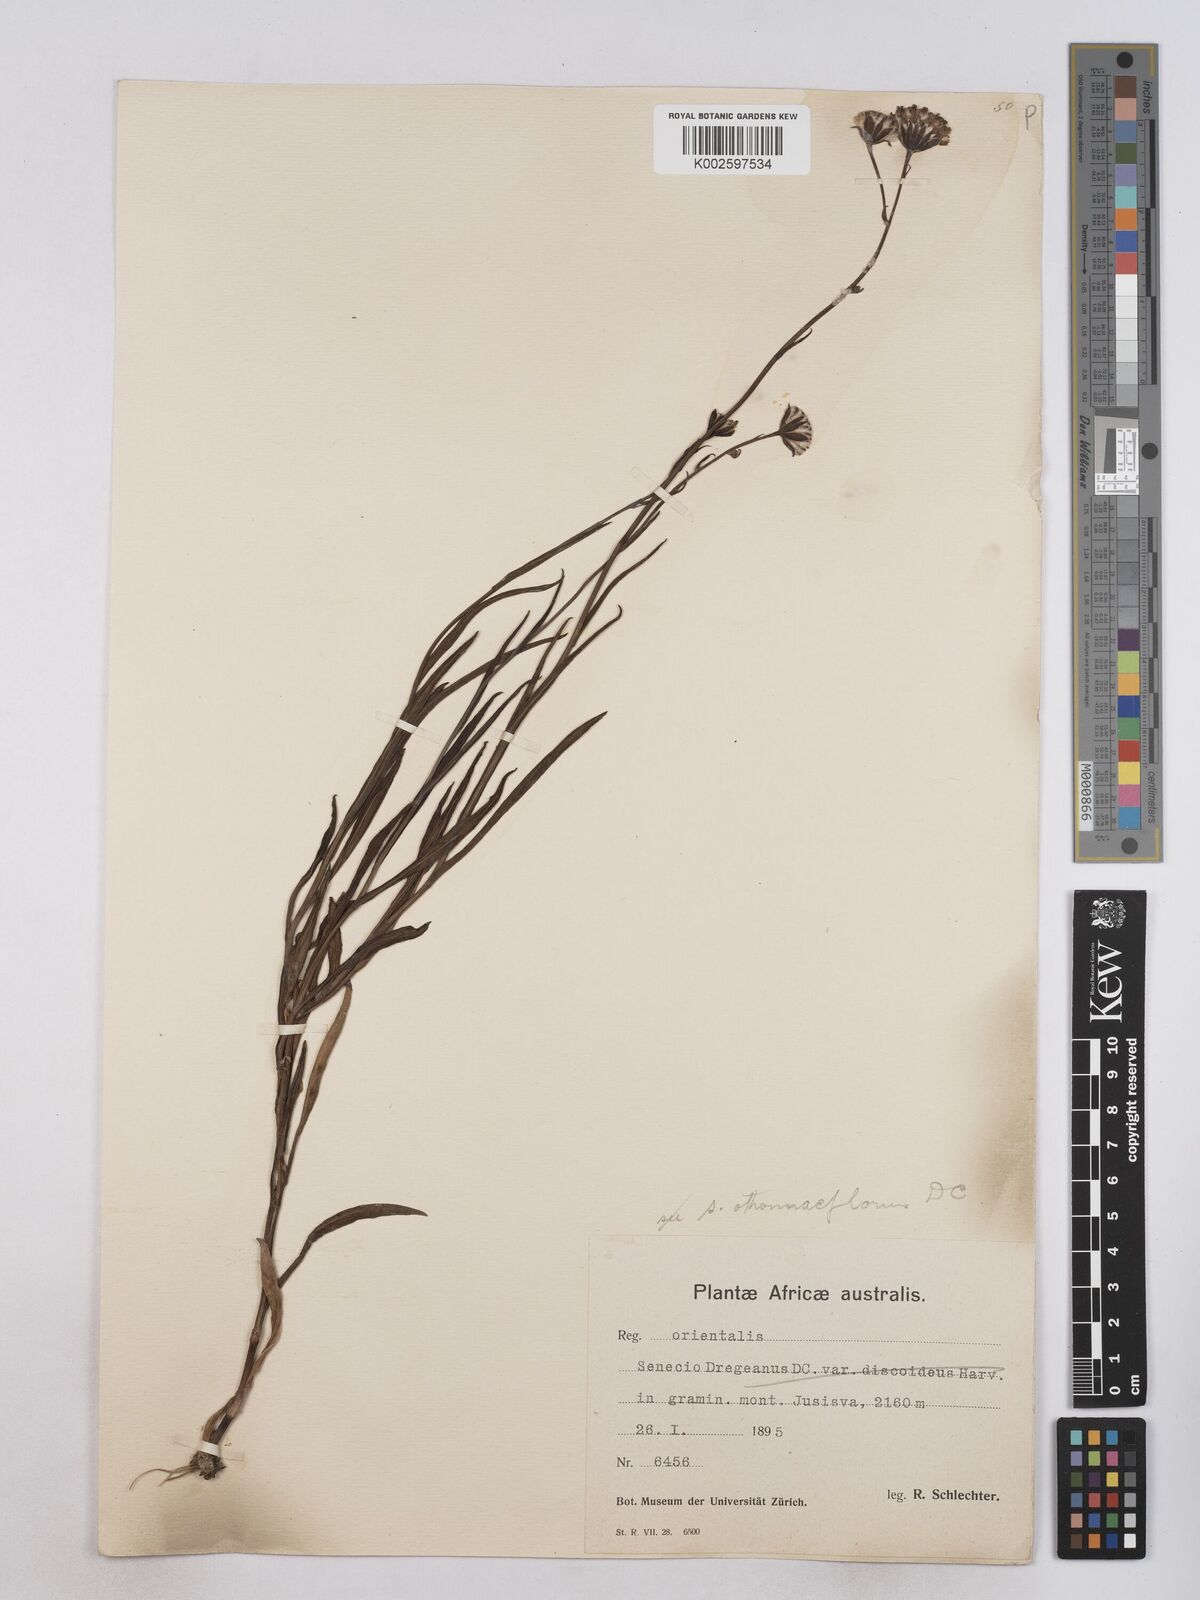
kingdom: Plantae
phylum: Tracheophyta
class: Magnoliopsida
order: Asterales
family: Asteraceae
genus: Senecio
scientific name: Senecio othonniflorus
